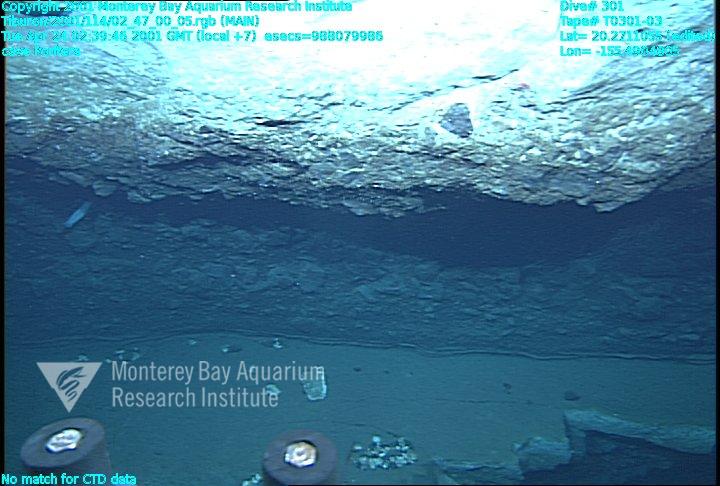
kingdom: Animalia
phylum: Porifera
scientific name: Porifera
